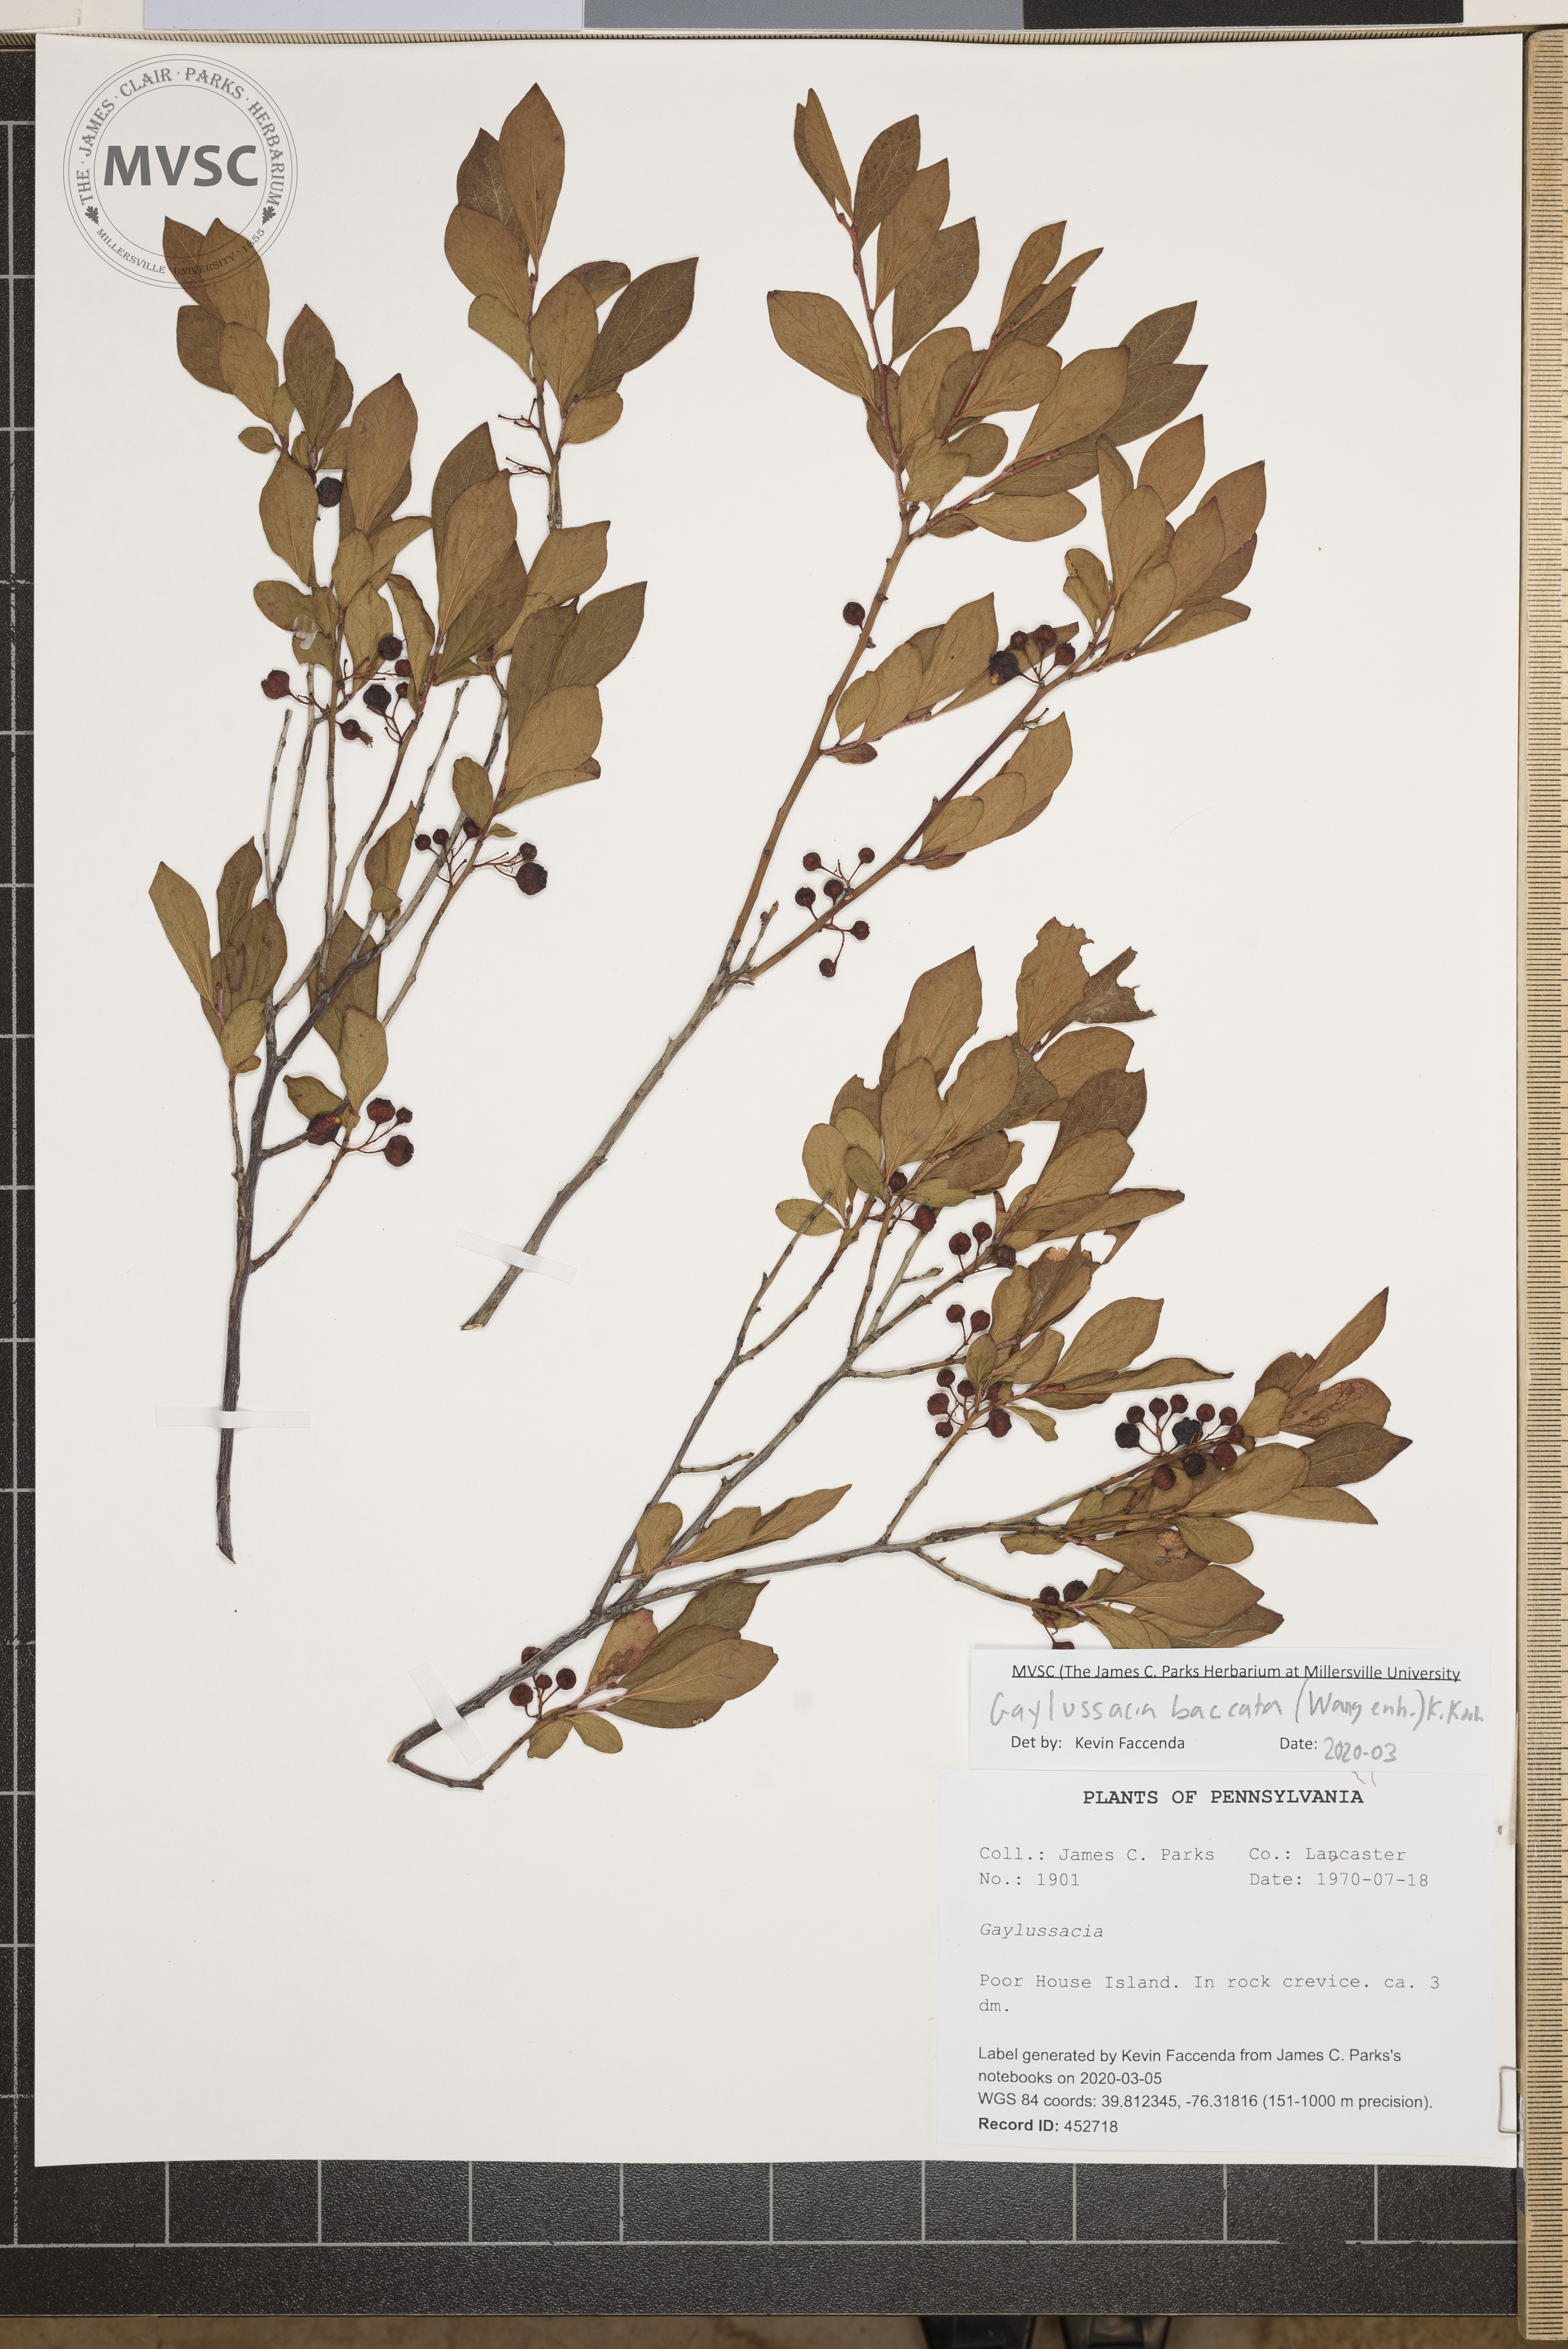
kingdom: Plantae
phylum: Tracheophyta
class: Magnoliopsida
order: Ericales
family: Ericaceae
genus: Gaylussacia
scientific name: Gaylussacia baccata
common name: Black huckleberry
